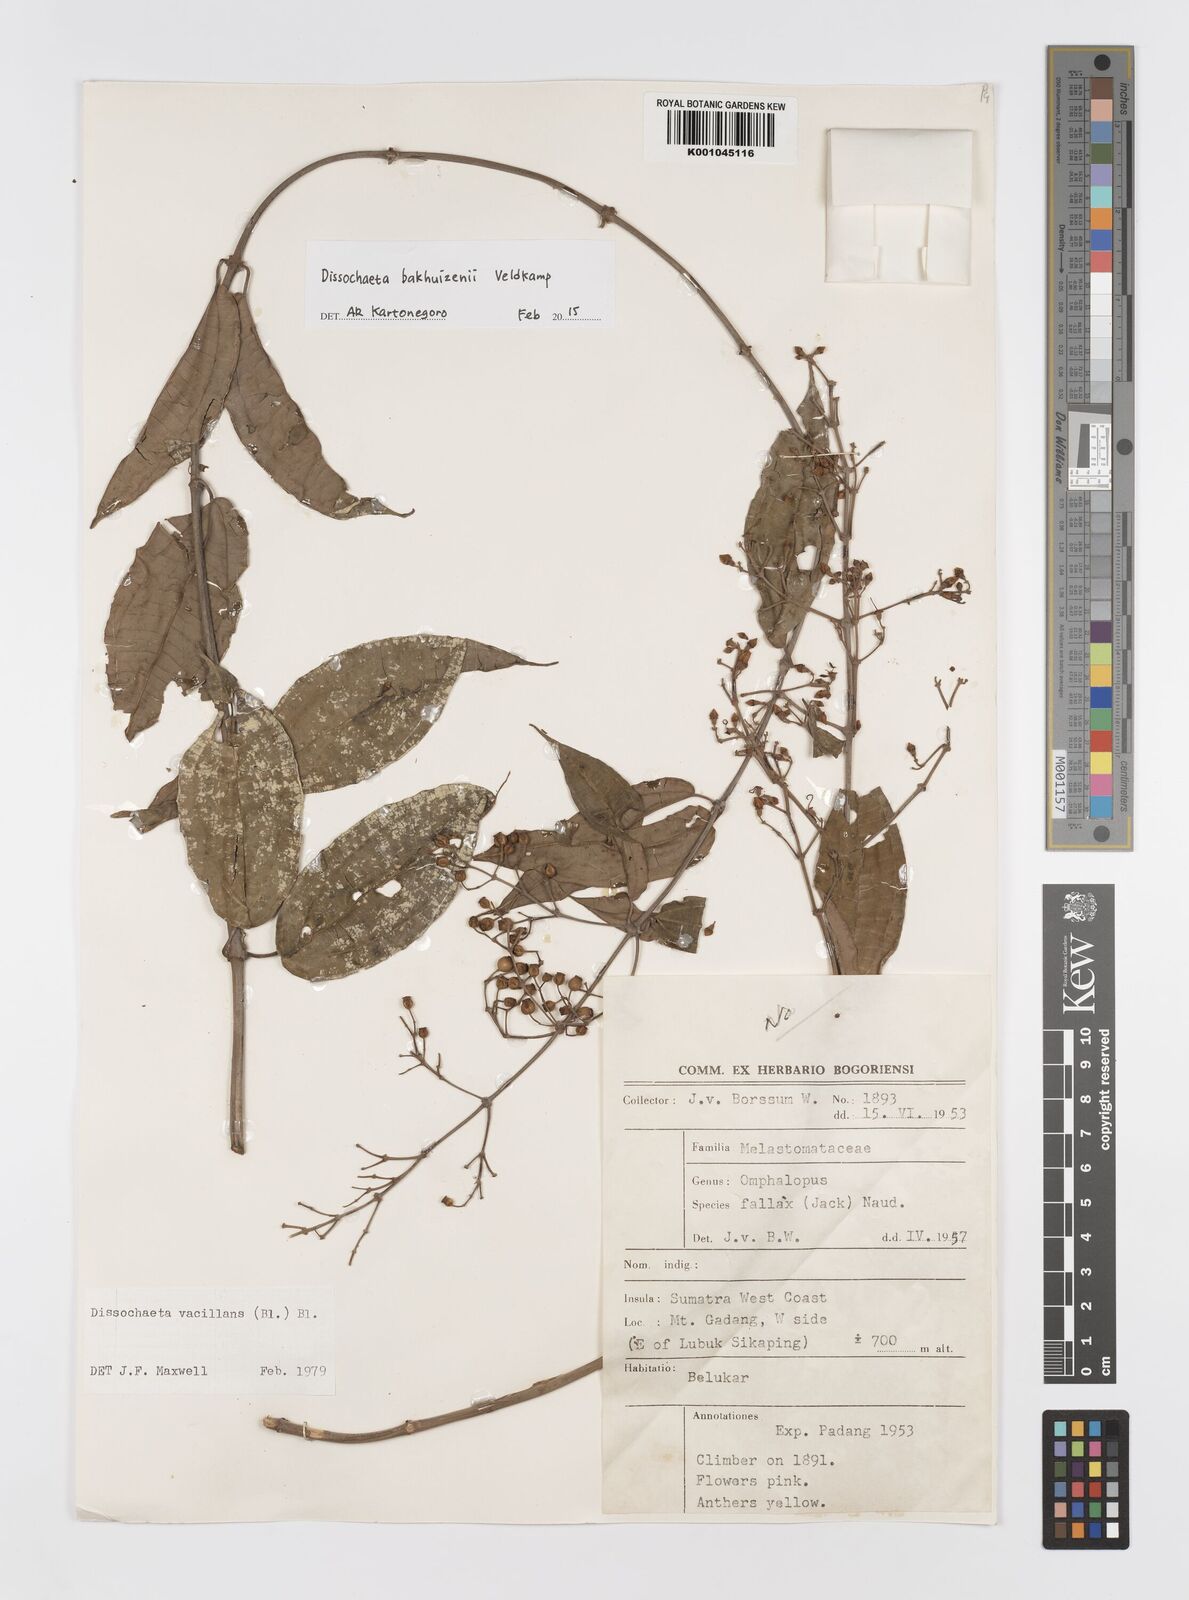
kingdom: Plantae
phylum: Tracheophyta
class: Magnoliopsida
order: Myrtales
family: Melastomataceae
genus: Dissochaeta
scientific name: Dissochaeta bakhuizenii
